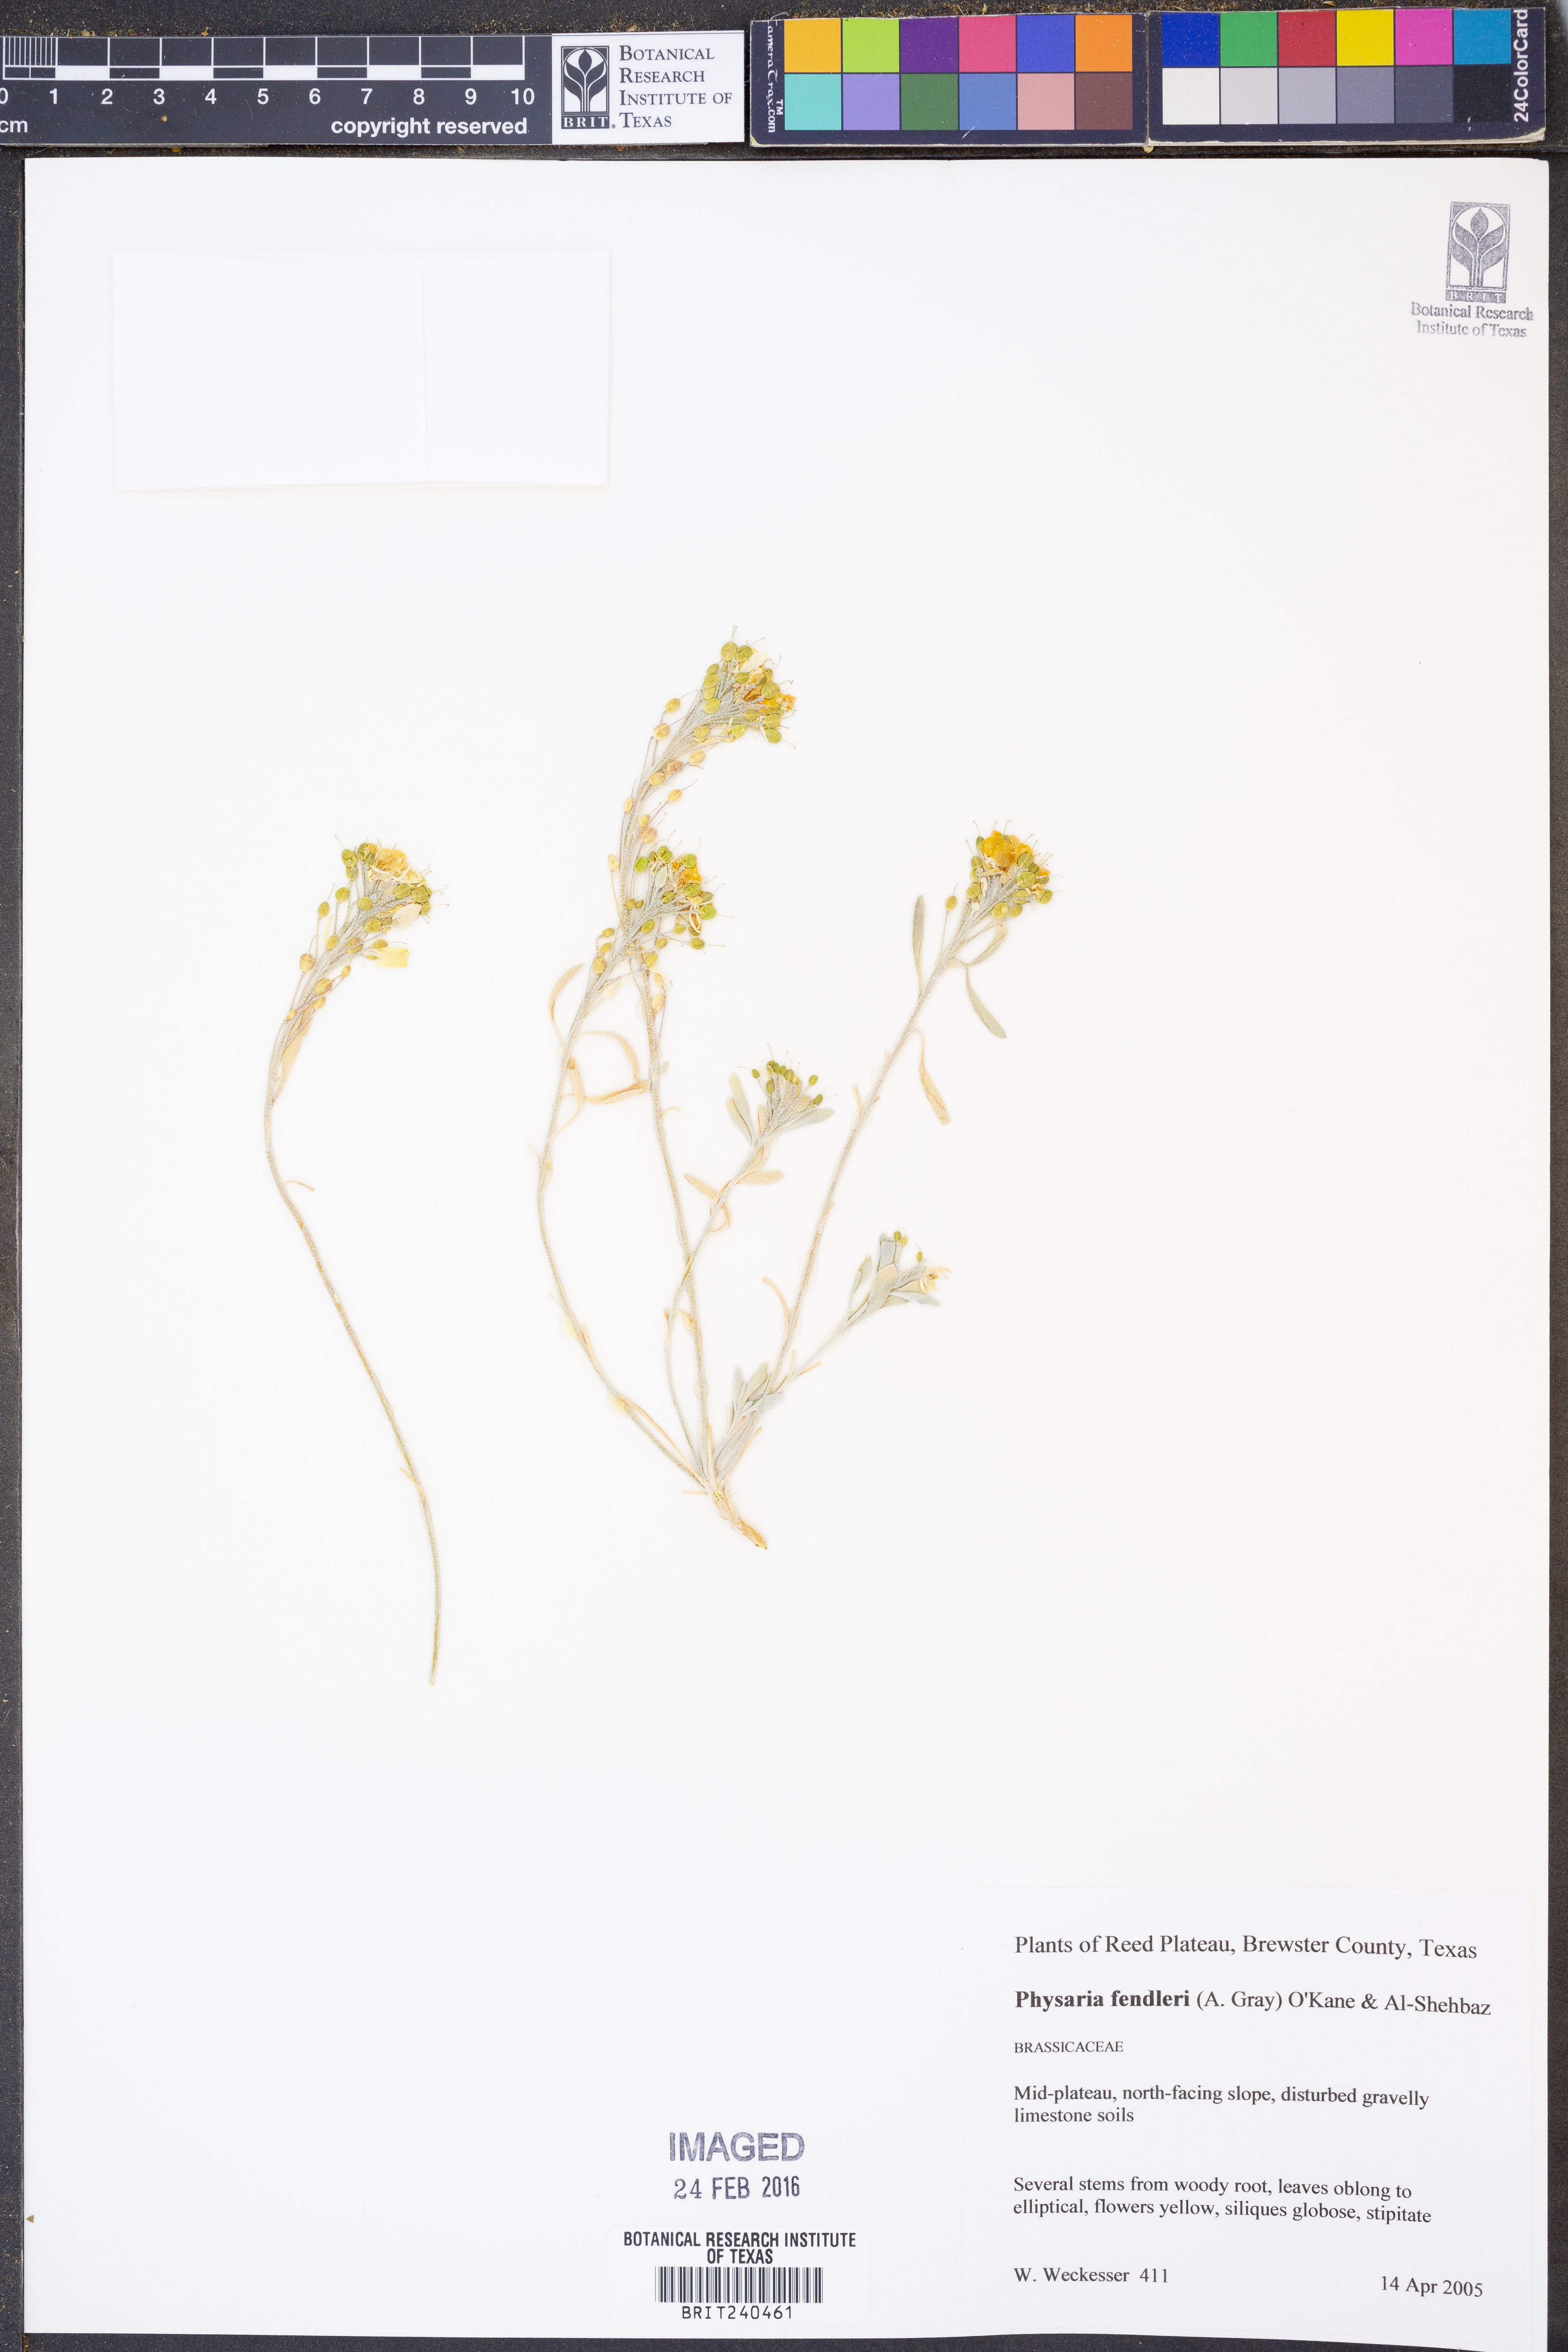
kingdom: Plantae
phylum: Tracheophyta
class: Magnoliopsida
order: Brassicales
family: Brassicaceae
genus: Physaria
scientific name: Physaria fendleri
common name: Fendler's bladderpod
